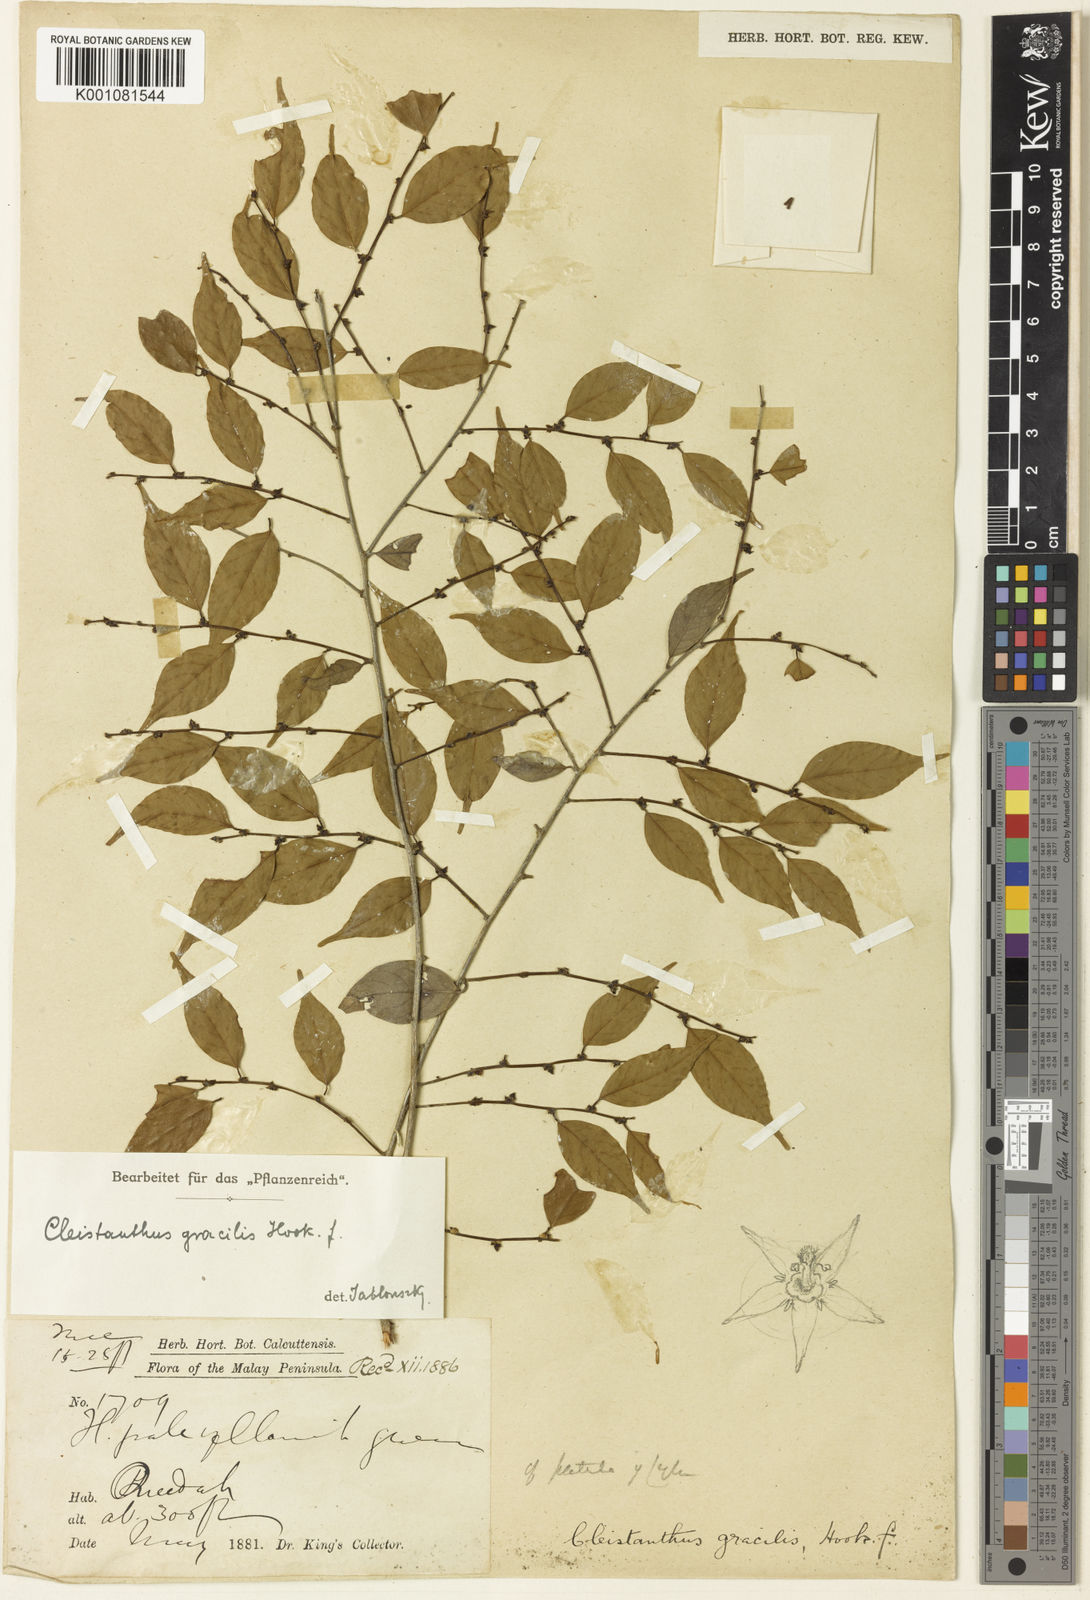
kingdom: Plantae
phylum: Tracheophyta
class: Magnoliopsida
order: Malpighiales
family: Phyllanthaceae
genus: Cleistanthus
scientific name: Cleistanthus gracilis
